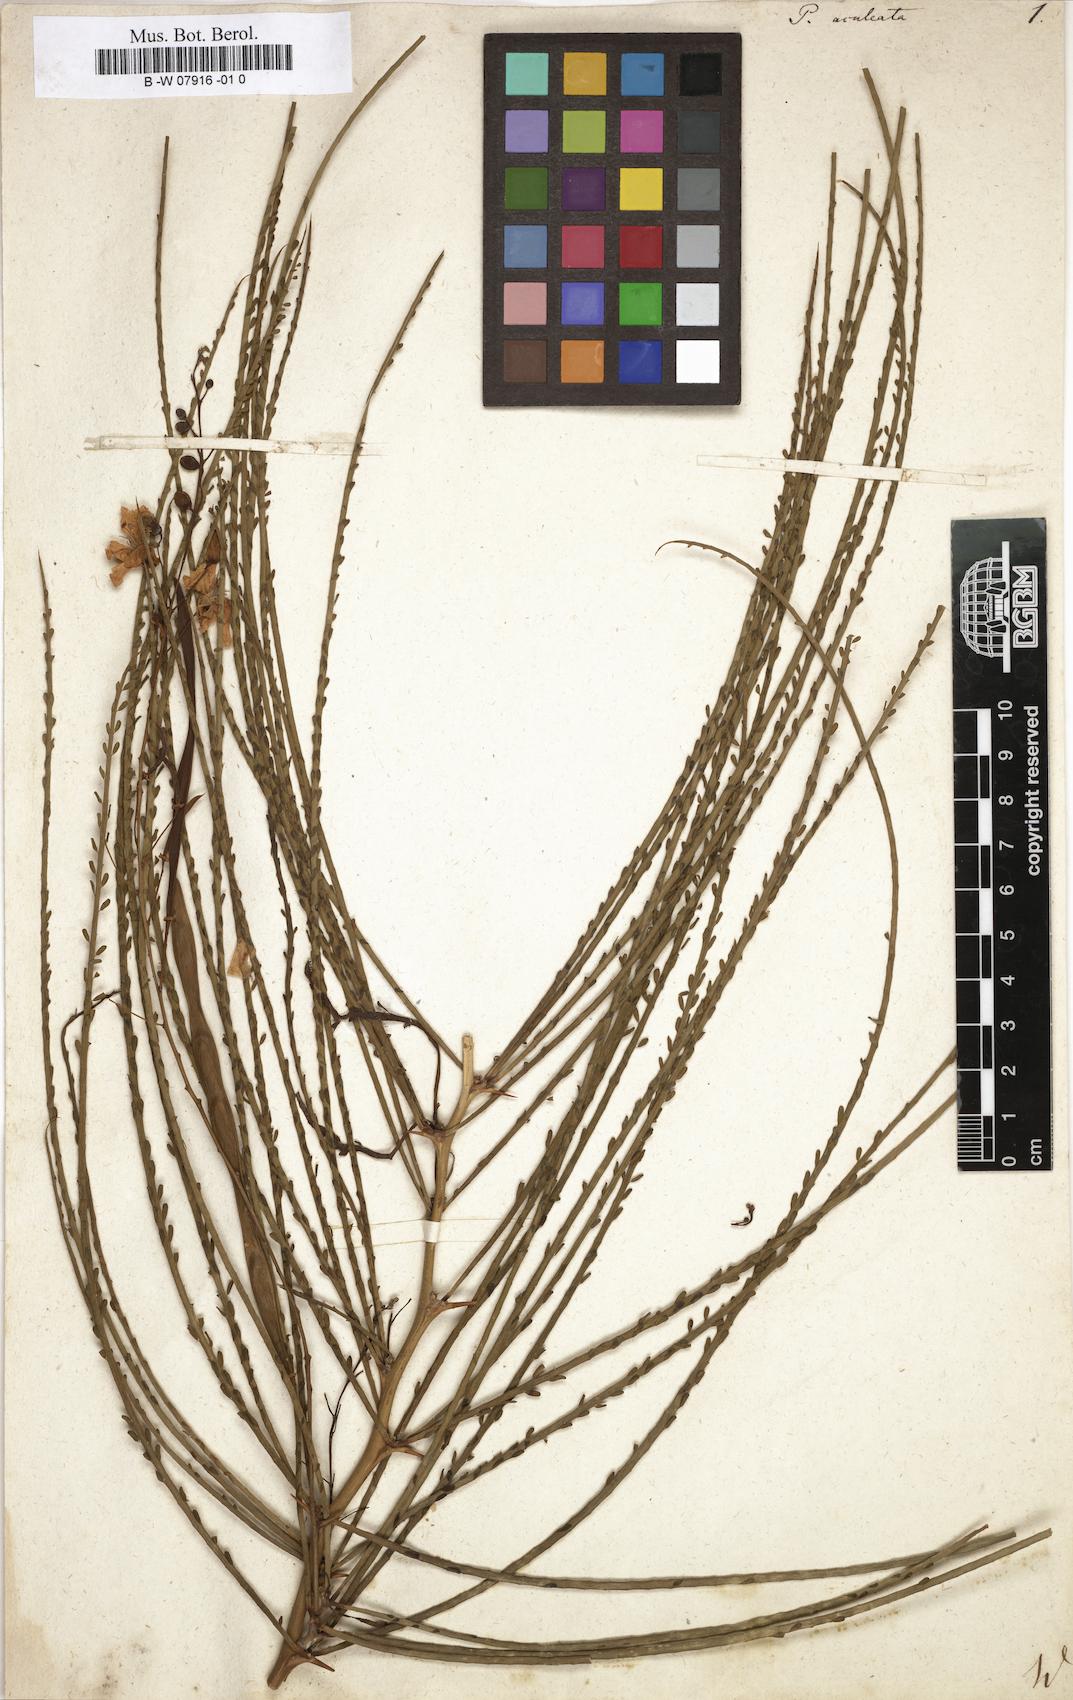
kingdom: Plantae
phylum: Tracheophyta
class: Magnoliopsida
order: Fabales
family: Fabaceae
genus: Parkinsonia
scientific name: Parkinsonia aculeata
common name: Jerusalem thorn
